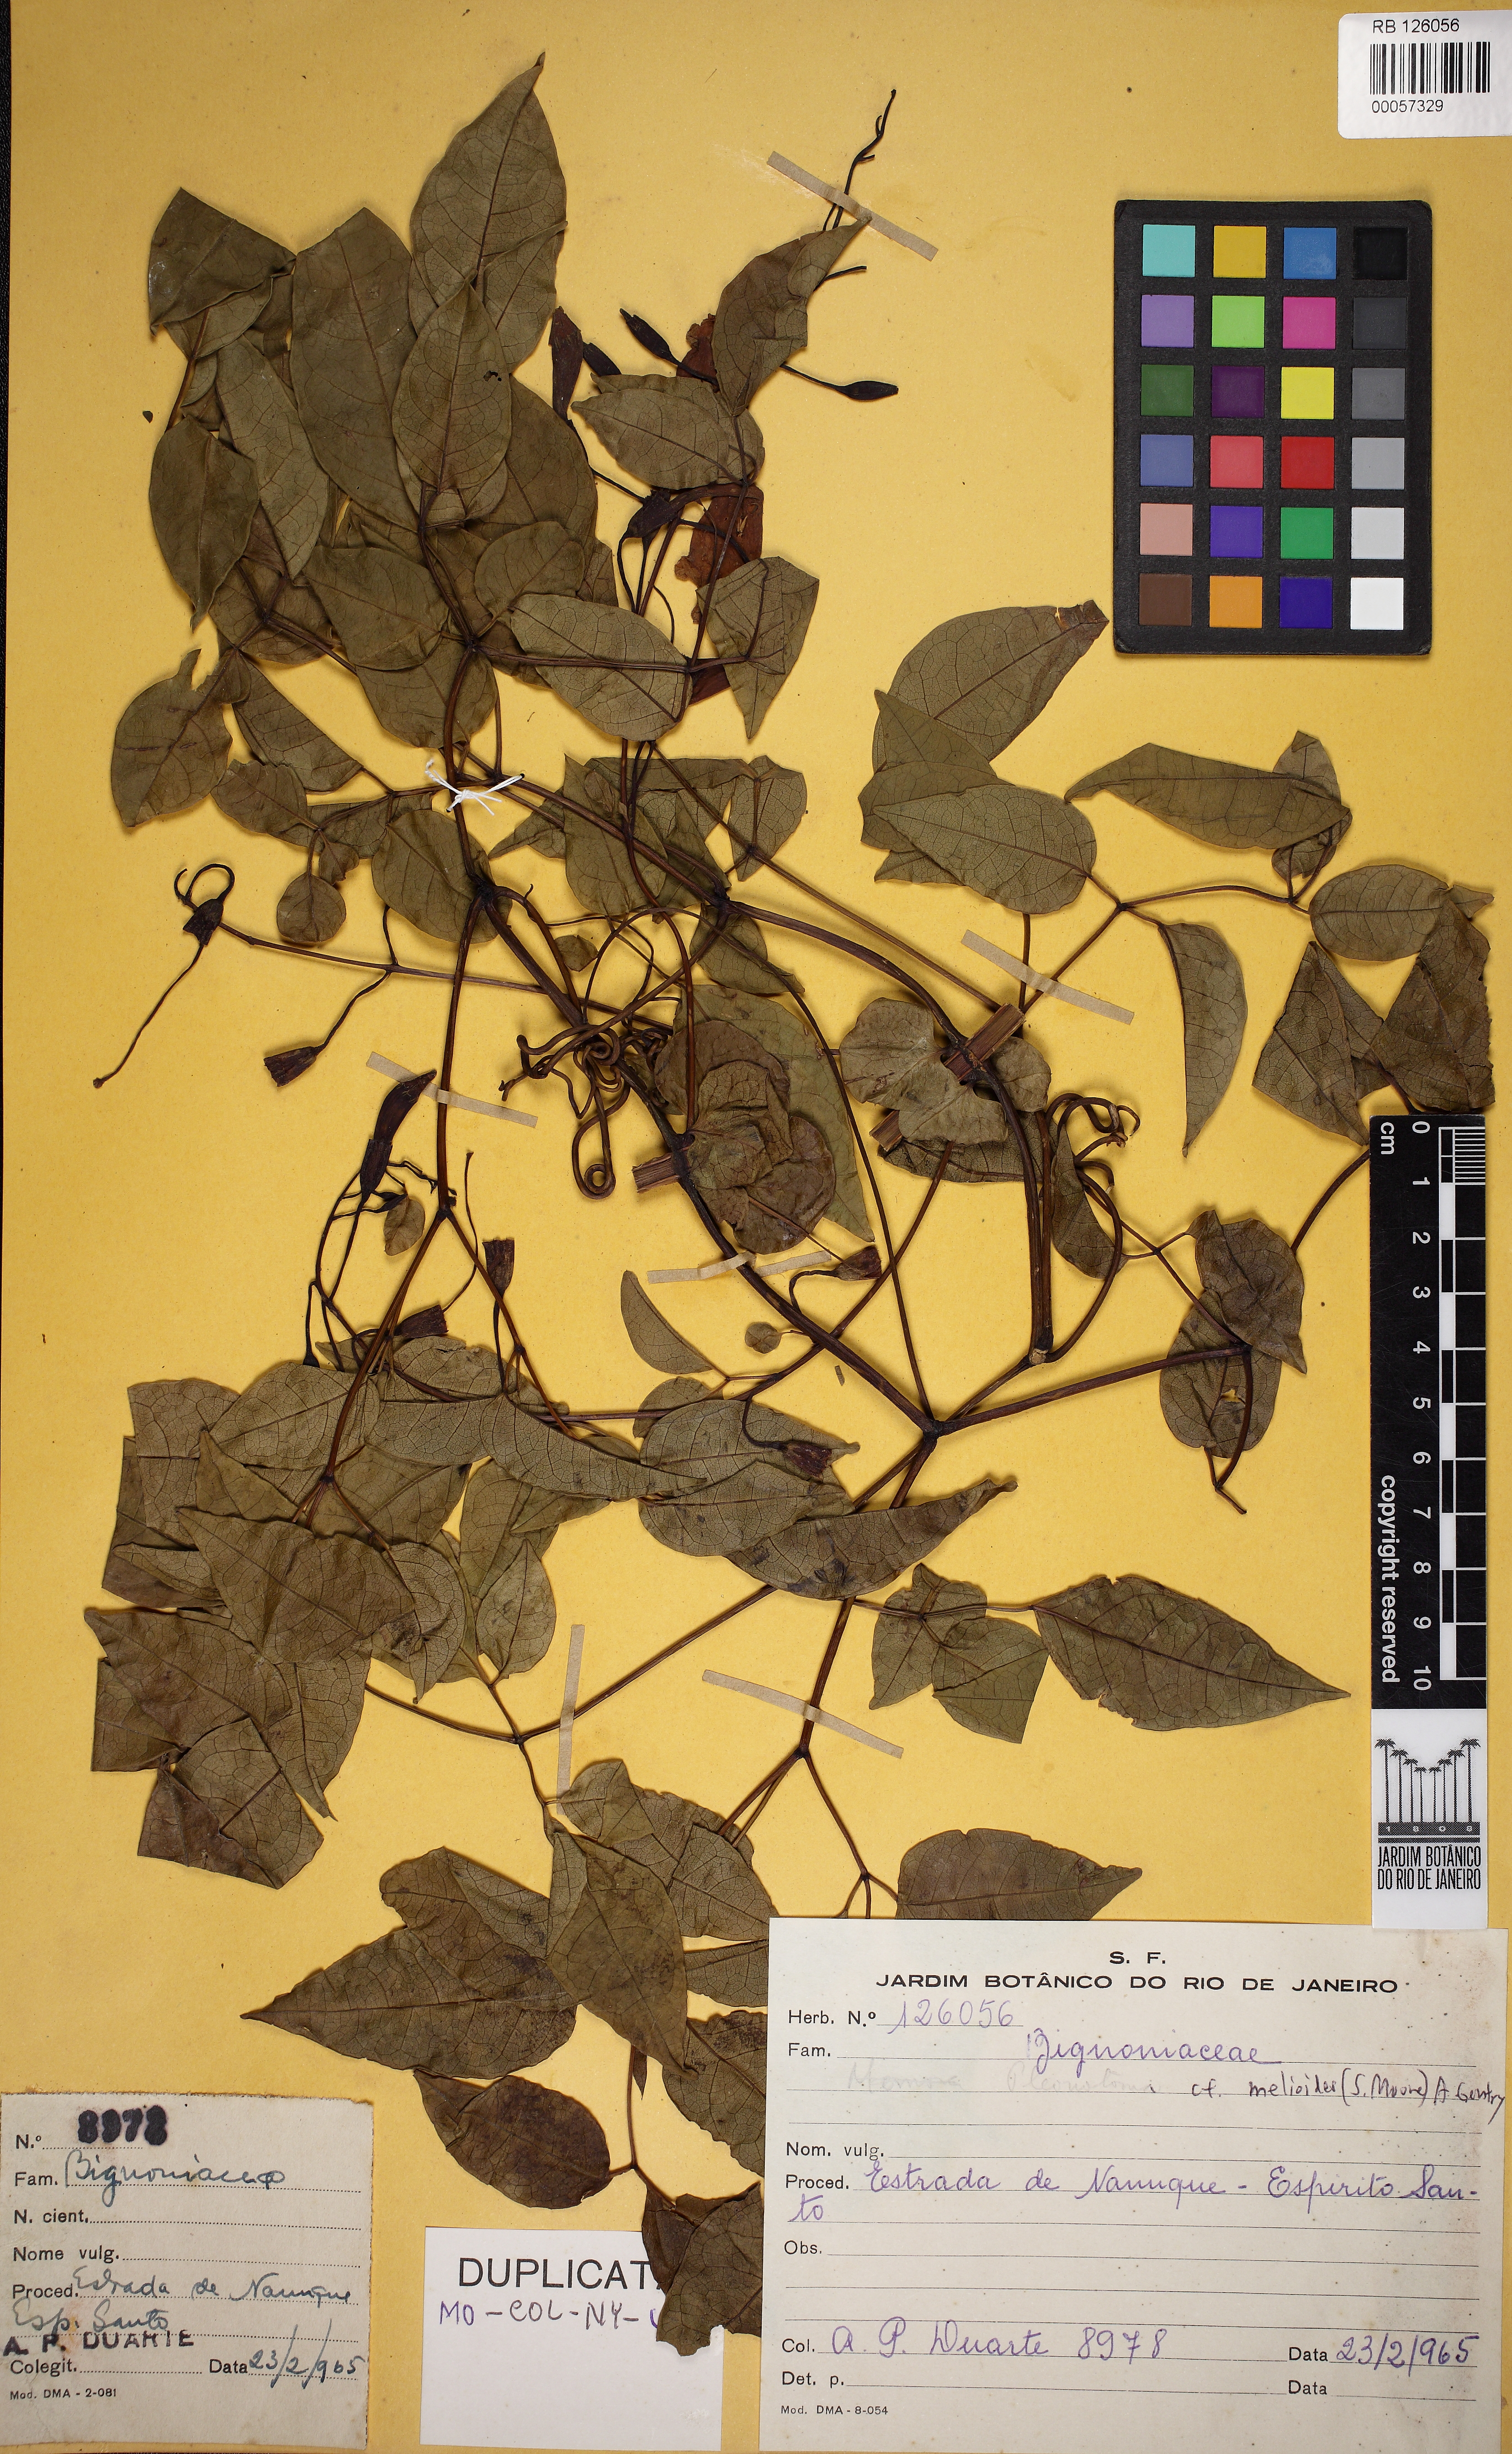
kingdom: Plantae
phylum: Tracheophyta
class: Magnoliopsida
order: Lamiales
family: Bignoniaceae
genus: Pleonotoma
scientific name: Pleonotoma melioides
